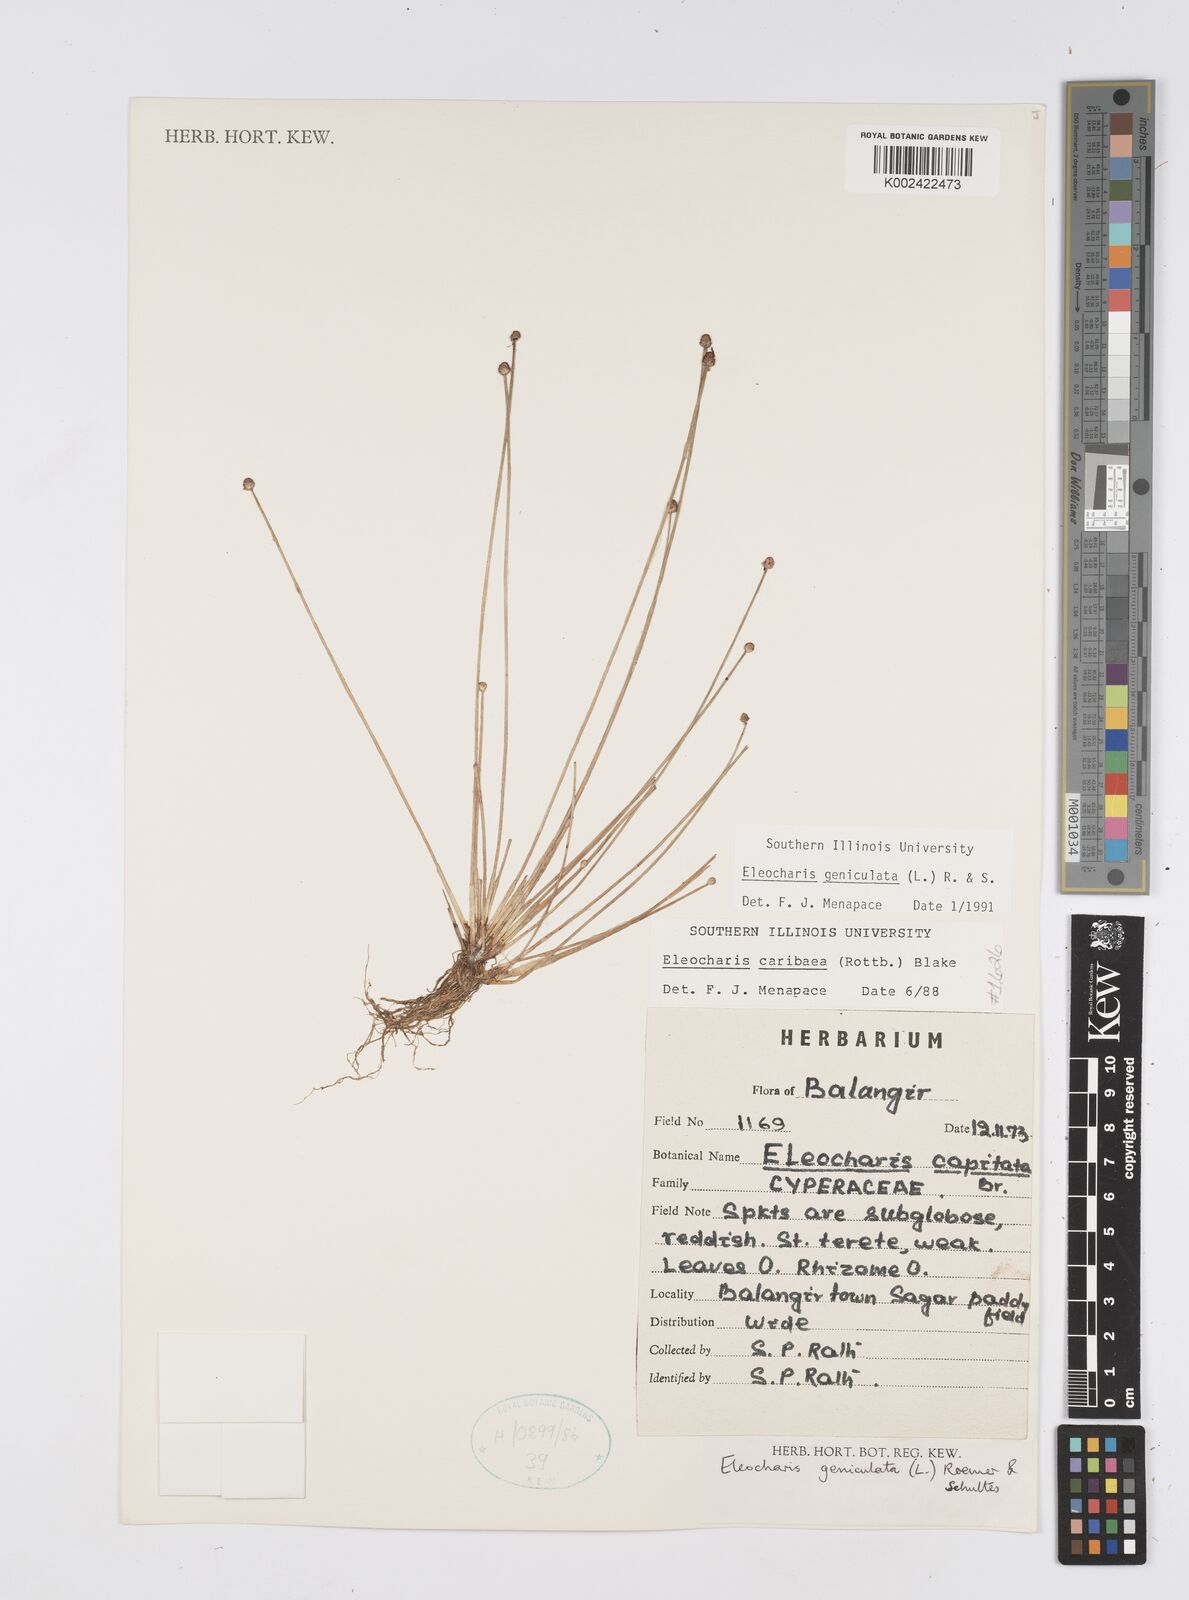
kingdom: Plantae
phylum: Tracheophyta
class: Liliopsida
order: Poales
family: Cyperaceae
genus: Eleocharis
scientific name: Eleocharis geniculata
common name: Canada spikesedge
